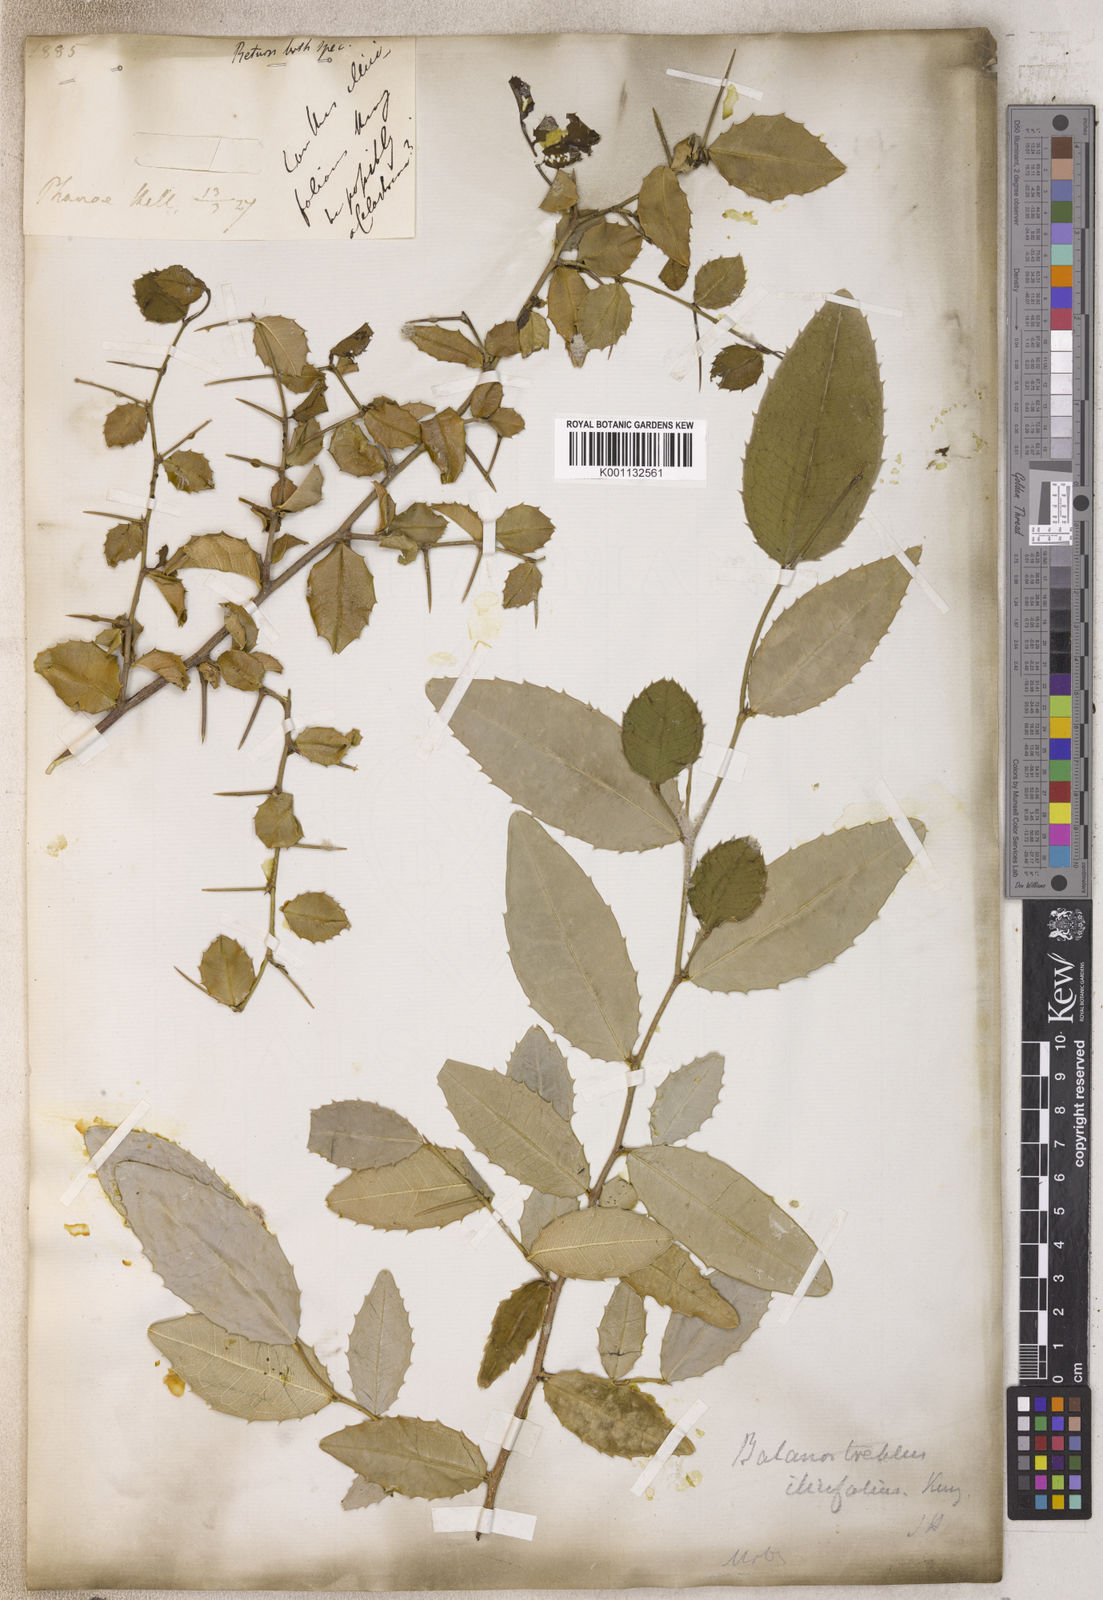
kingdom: Plantae
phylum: Tracheophyta
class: Magnoliopsida
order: Rosales
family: Moraceae
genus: Sorocea
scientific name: Sorocea
